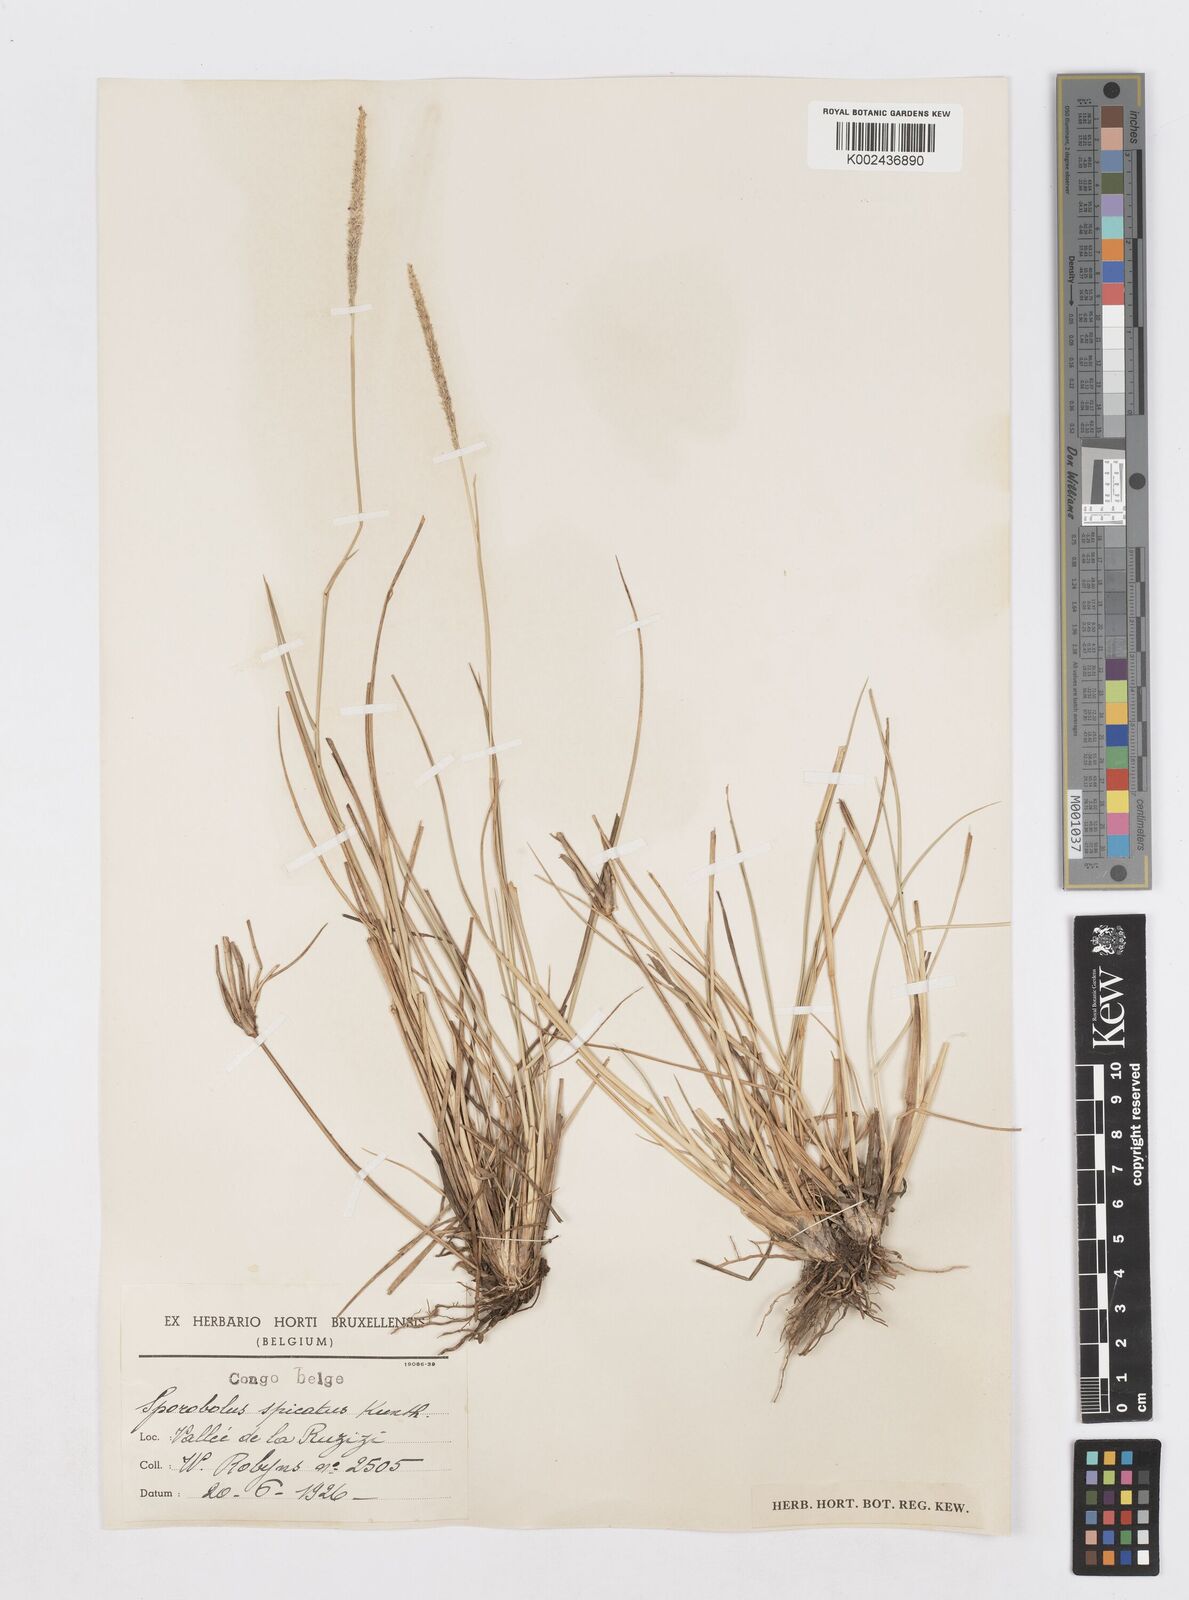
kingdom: Plantae
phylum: Tracheophyta
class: Liliopsida
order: Poales
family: Poaceae
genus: Sporobolus
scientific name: Sporobolus spicatus
